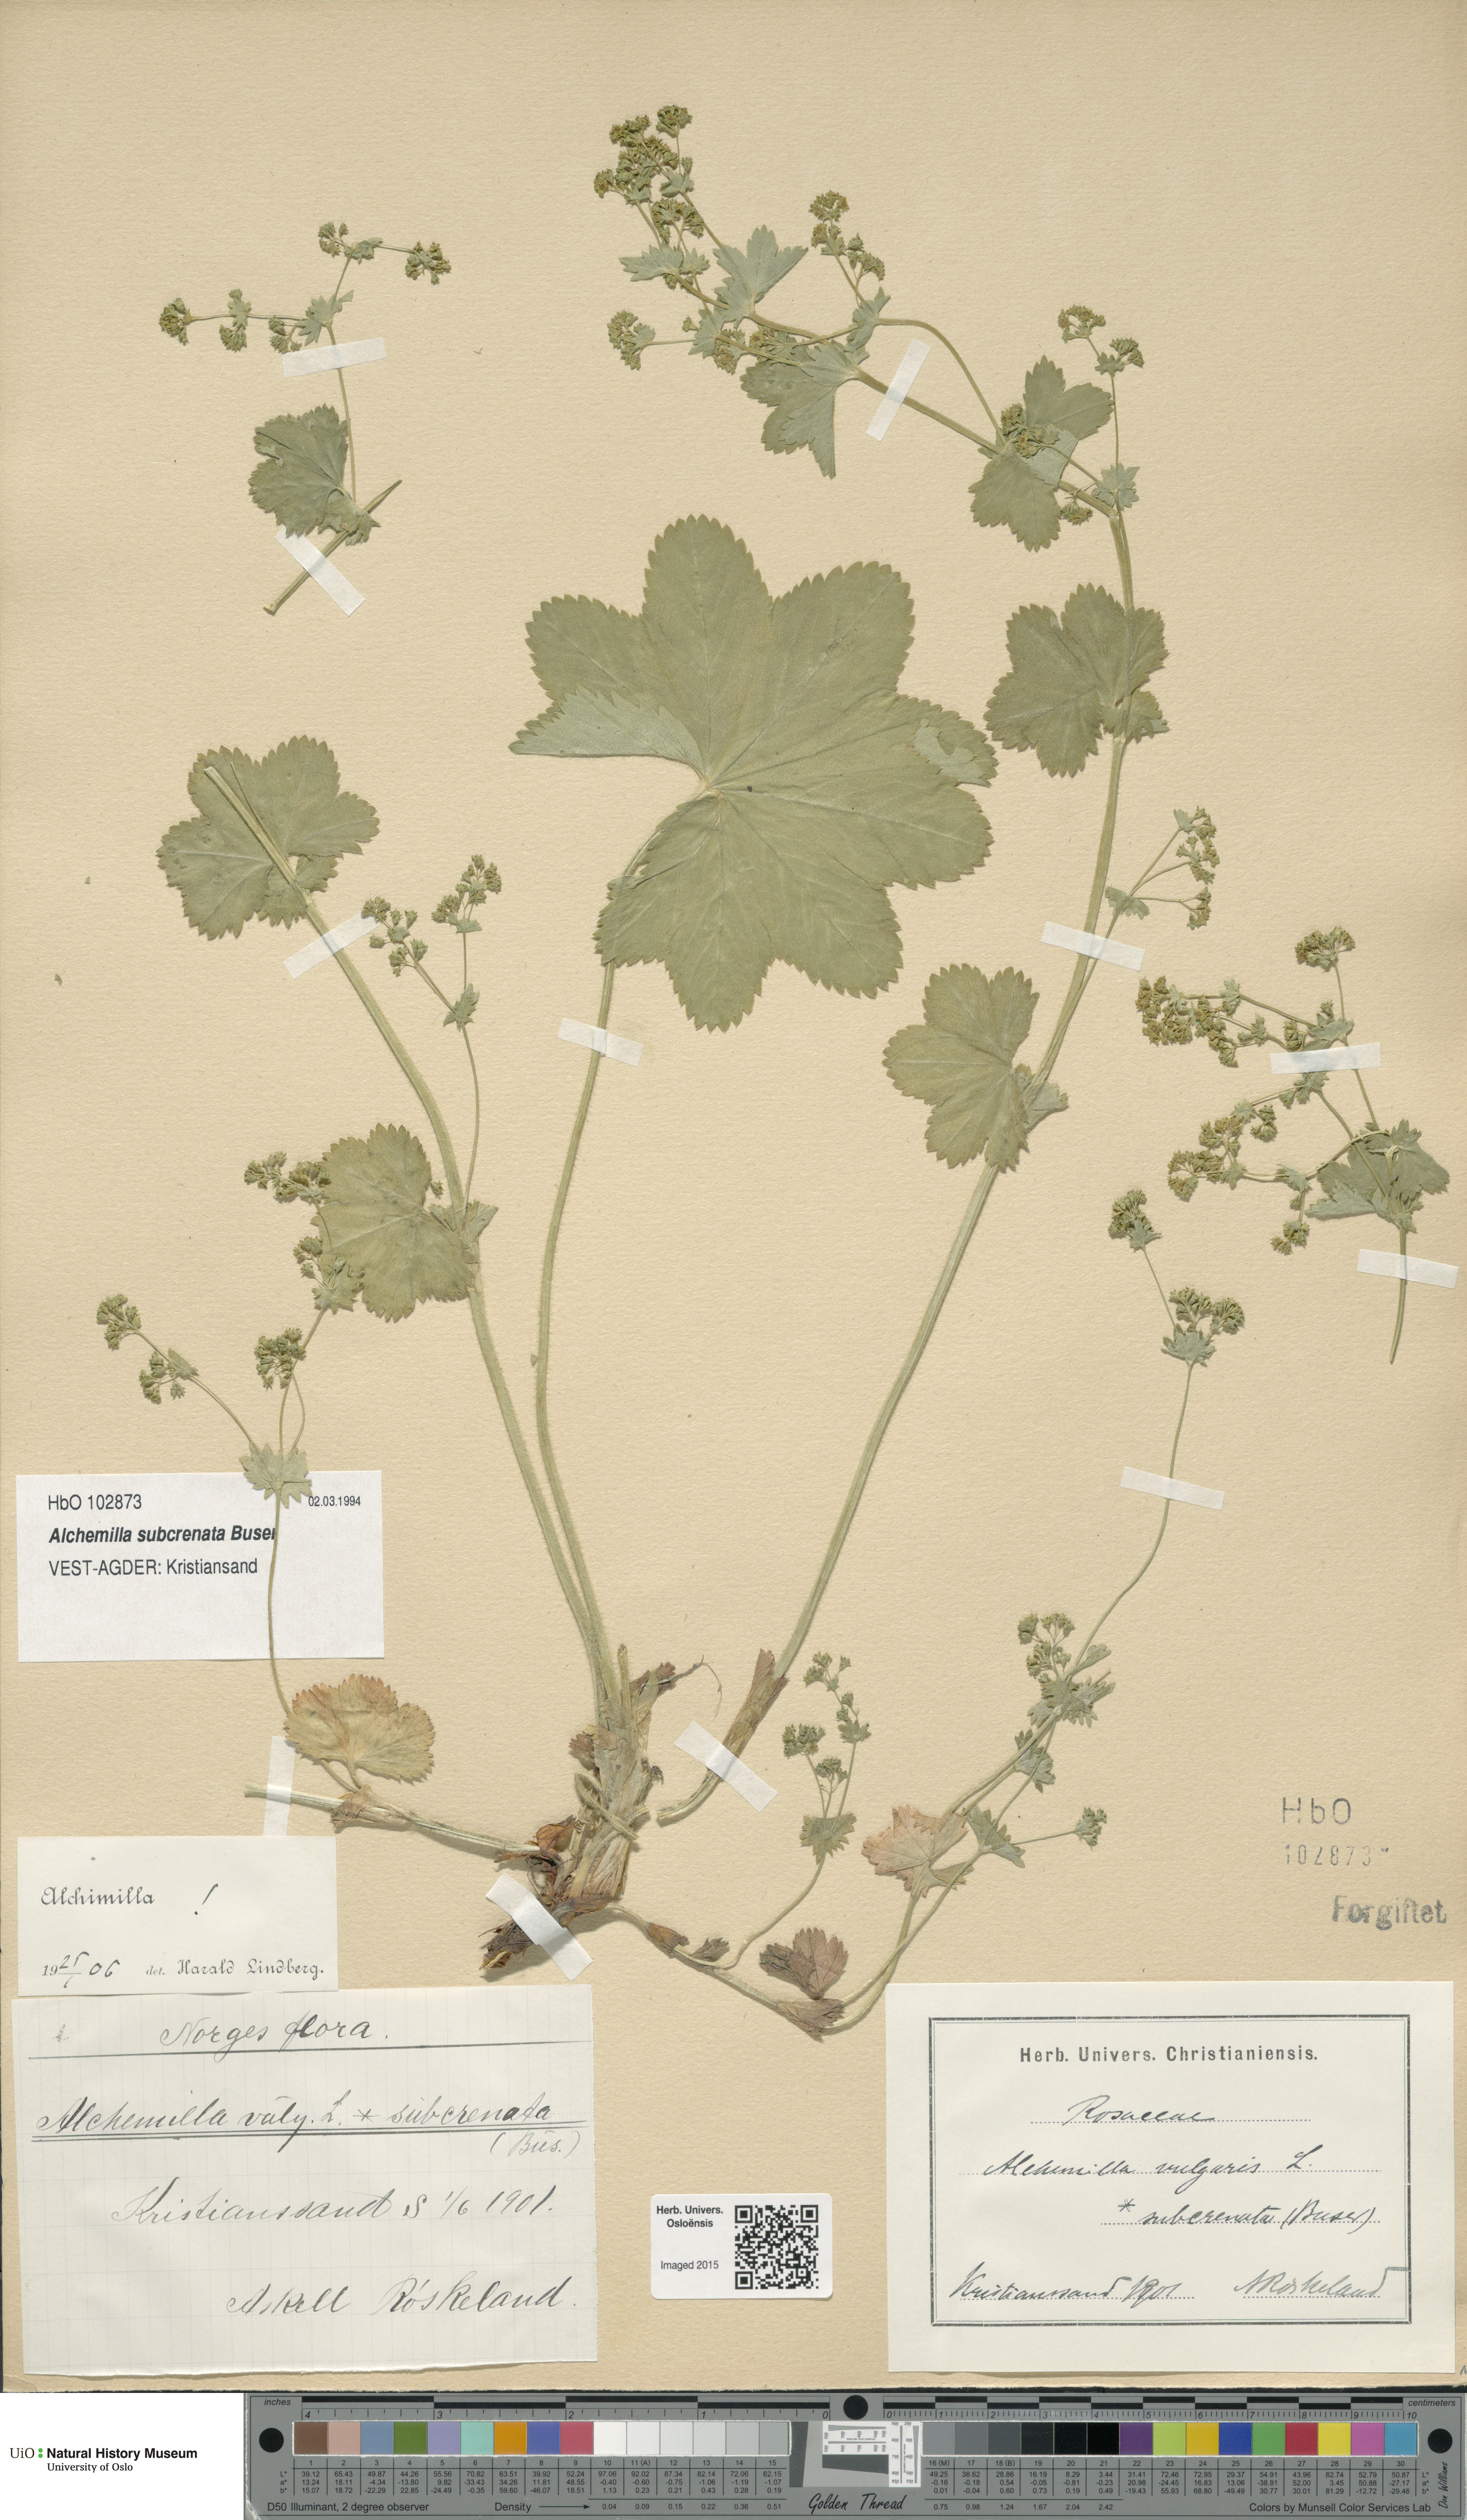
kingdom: Plantae
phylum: Tracheophyta
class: Magnoliopsida
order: Rosales
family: Rosaceae
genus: Alchemilla
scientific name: Alchemilla subcrenata
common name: Broadtooth lady's mantle
